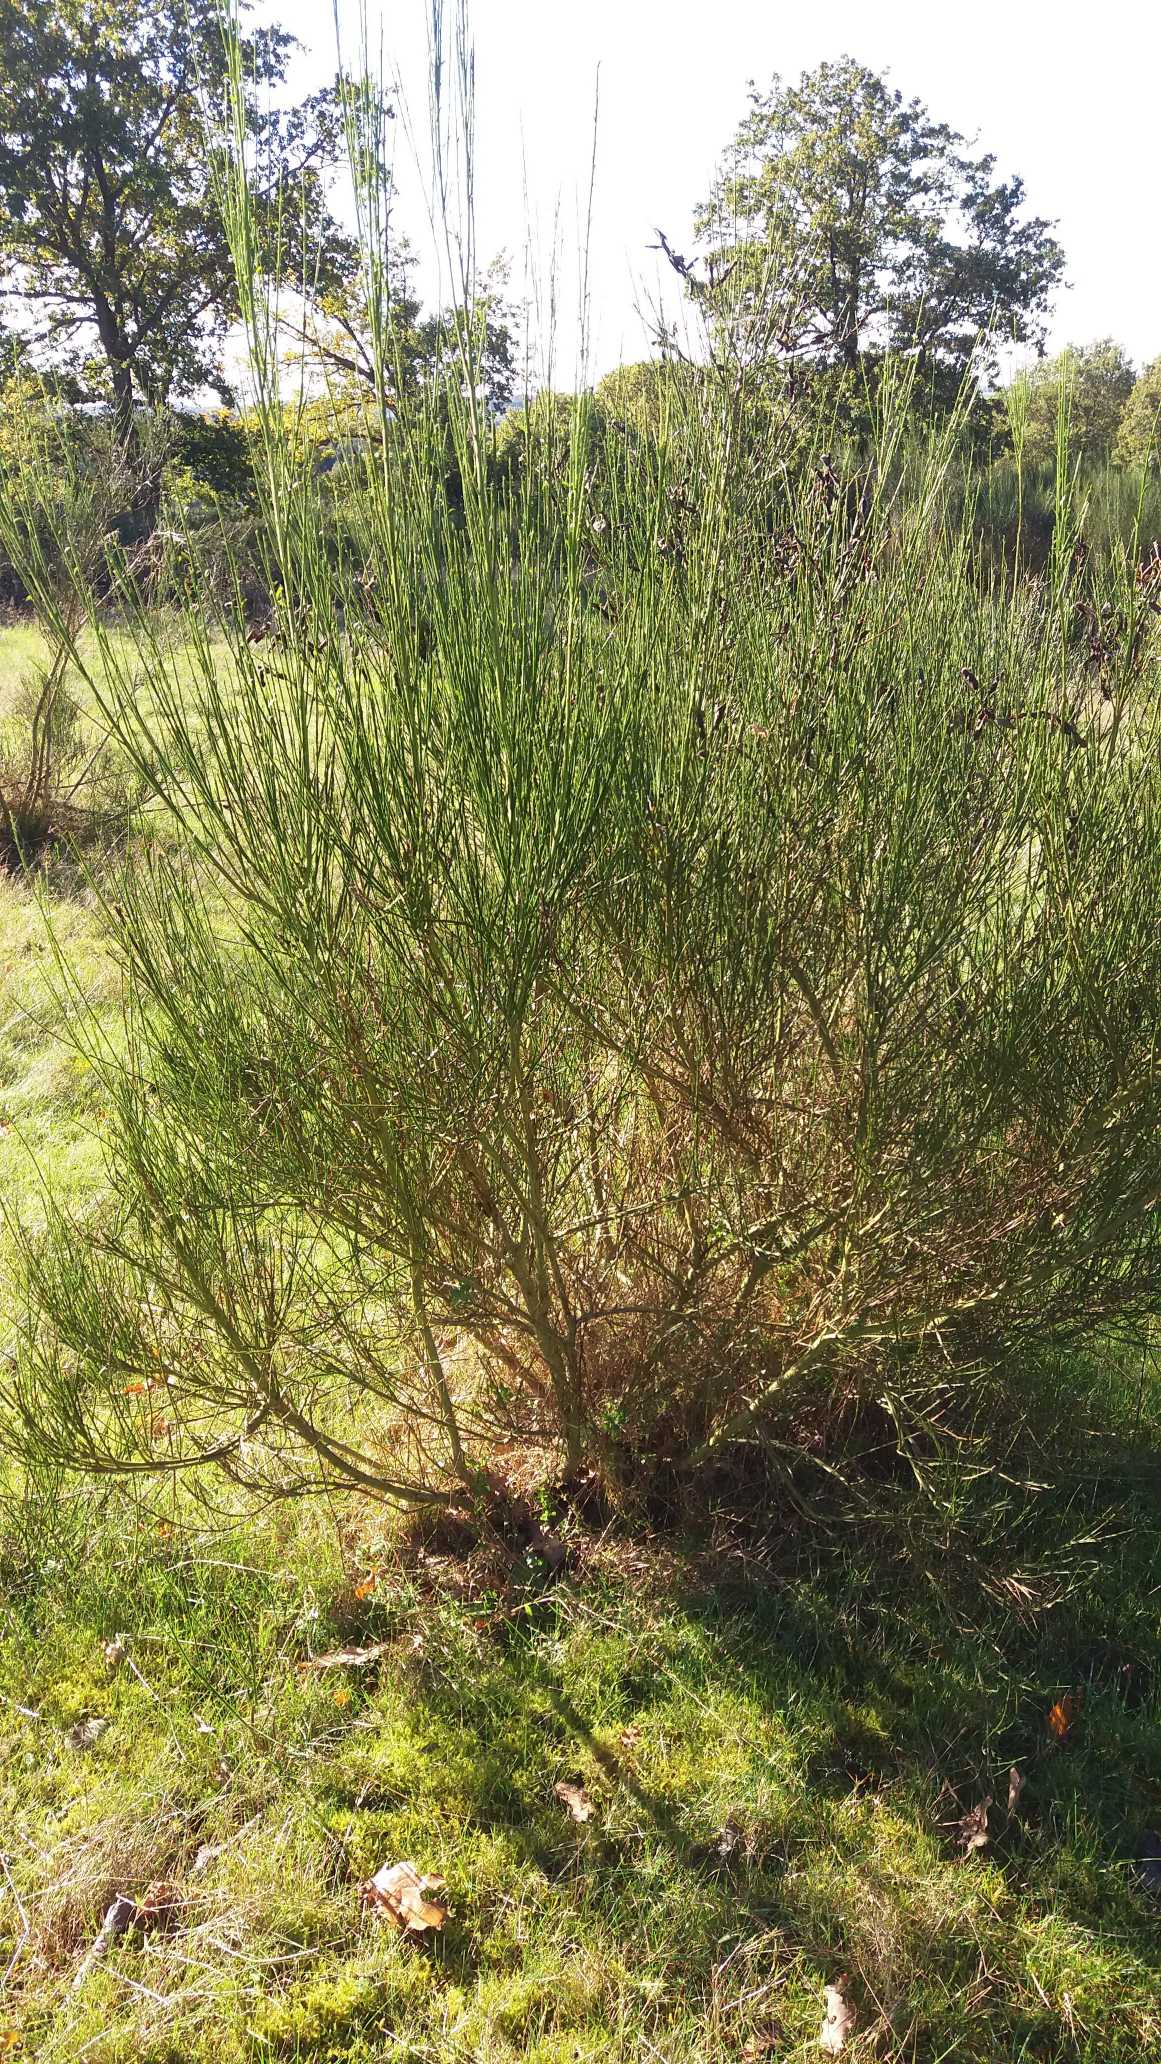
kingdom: Plantae
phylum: Tracheophyta
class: Magnoliopsida
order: Fabales
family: Fabaceae
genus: Cytisus
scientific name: Cytisus scoparius
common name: Almindelig gyvel
